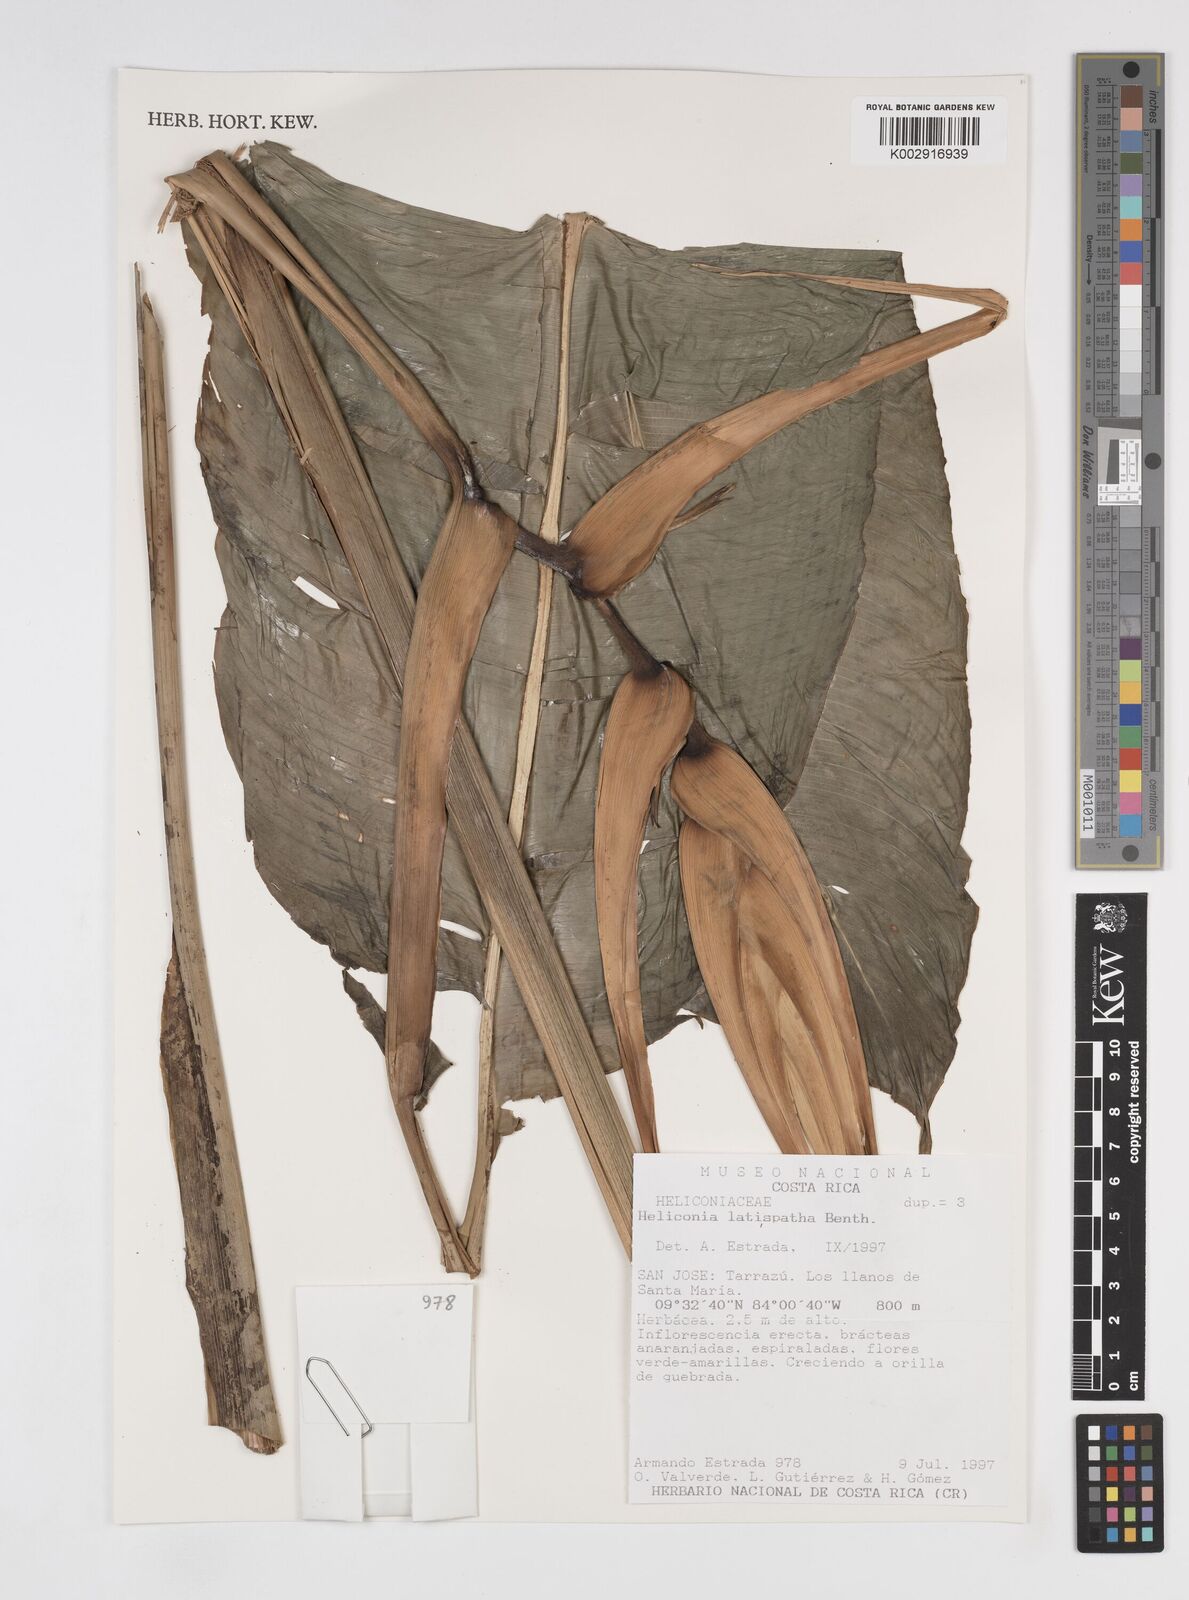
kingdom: Plantae
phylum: Tracheophyta
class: Liliopsida
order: Zingiberales
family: Heliconiaceae
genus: Heliconia
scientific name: Heliconia latispatha
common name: Expanded lobsterclaw
